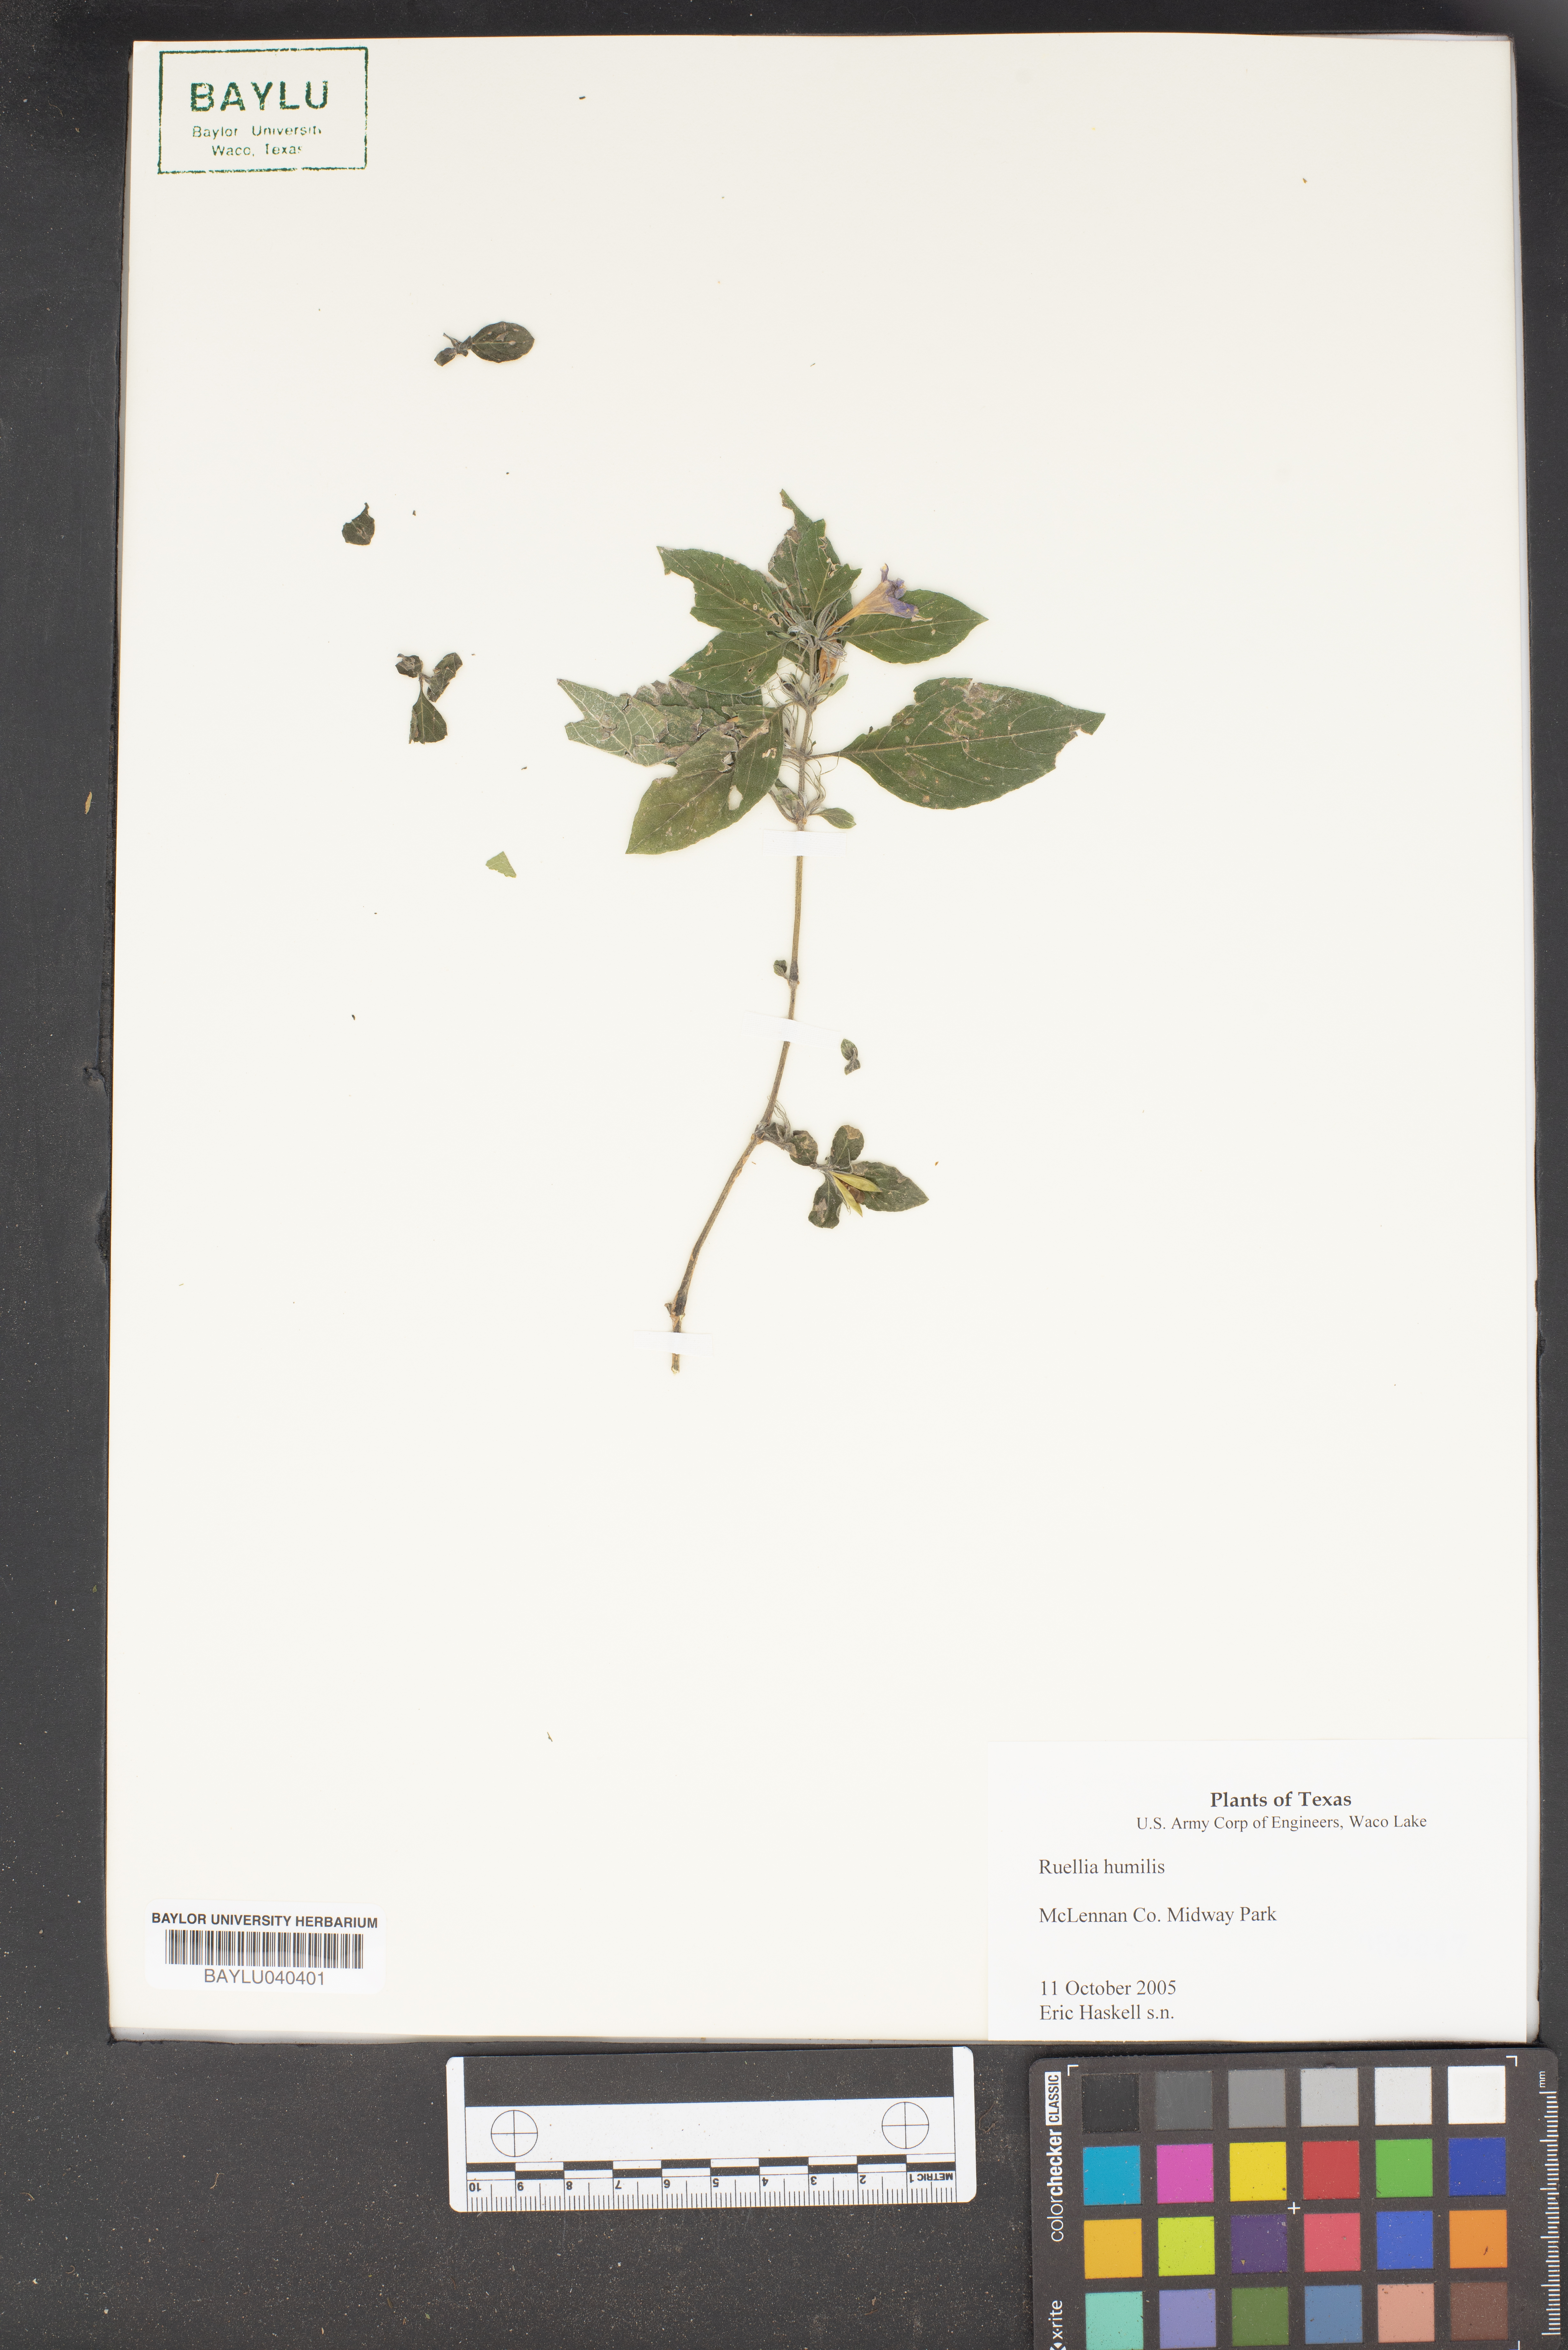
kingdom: Plantae
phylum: Tracheophyta
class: Magnoliopsida
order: Lamiales
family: Acanthaceae
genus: Ruellia
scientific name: Ruellia humilis
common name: Fringe-leaf ruellia
